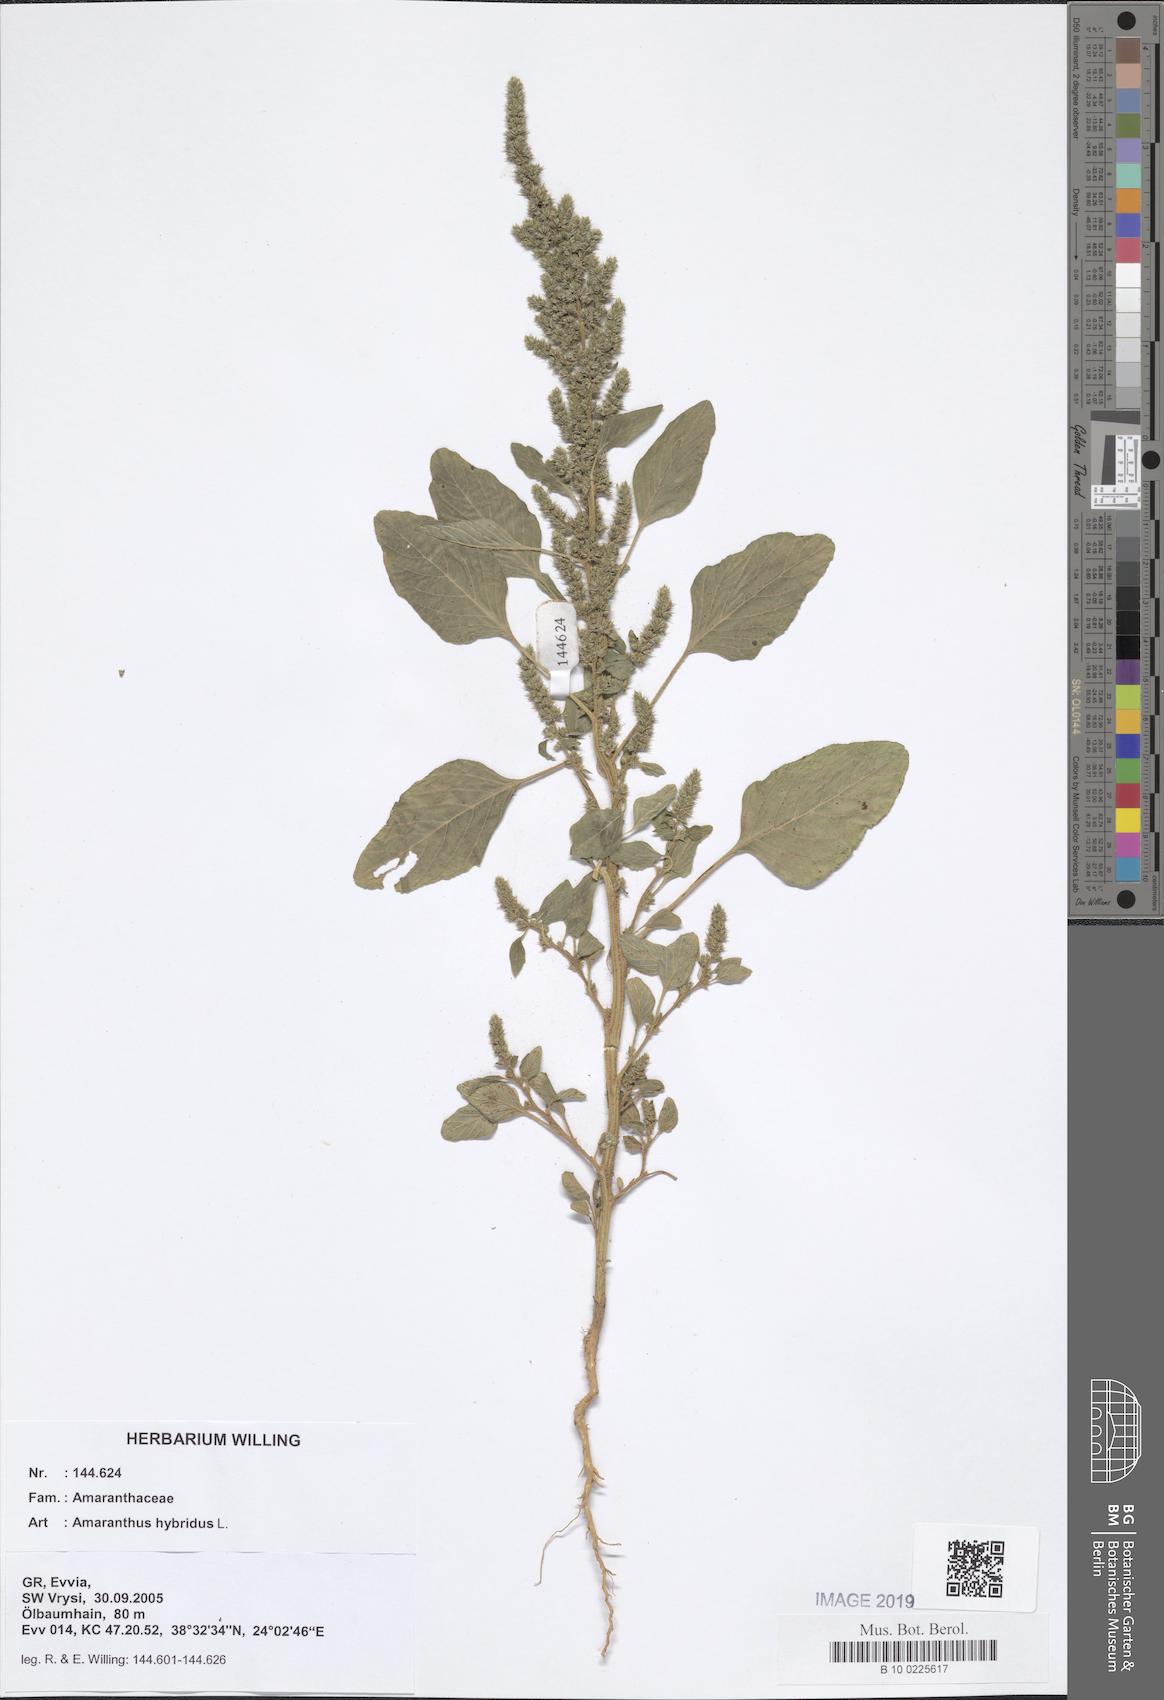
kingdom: Plantae
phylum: Tracheophyta
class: Magnoliopsida
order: Caryophyllales
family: Amaranthaceae
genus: Amaranthus
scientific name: Amaranthus hybridus
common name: Green amaranth
